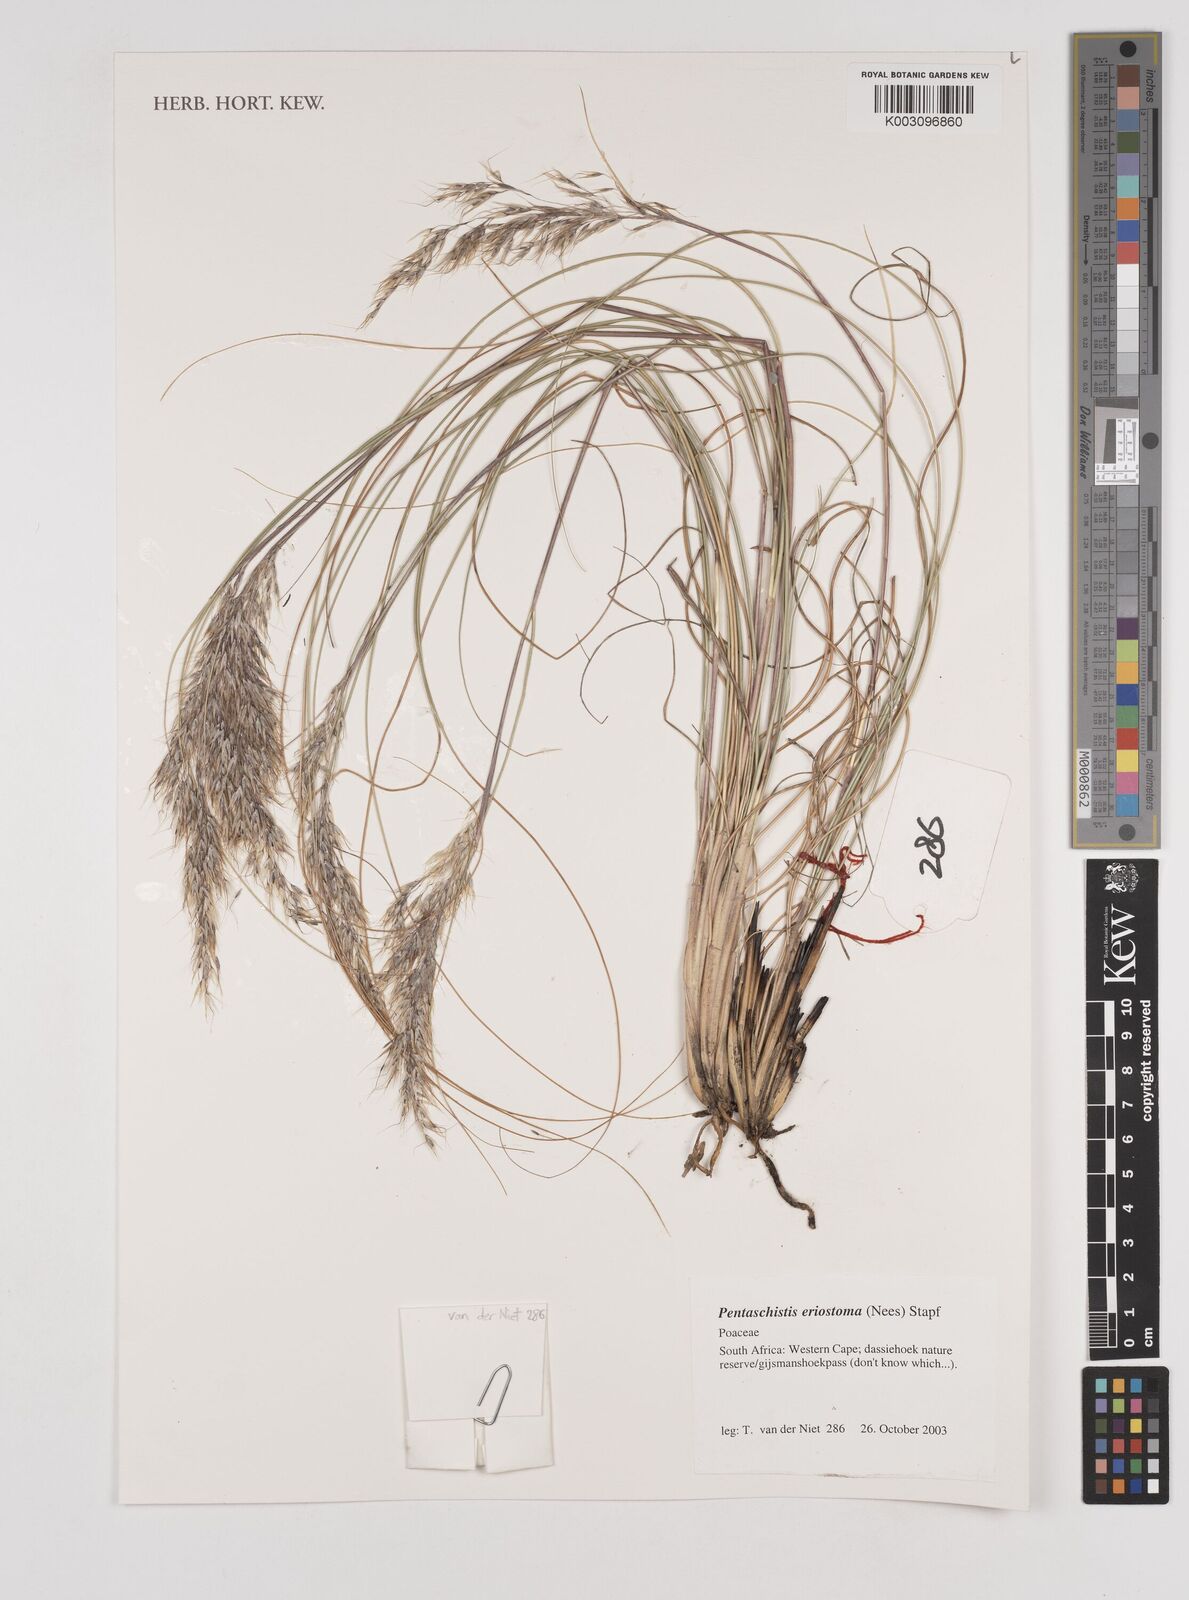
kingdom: Plantae
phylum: Tracheophyta
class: Liliopsida
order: Poales
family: Poaceae
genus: Pentameris
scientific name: Pentameris eriostoma
